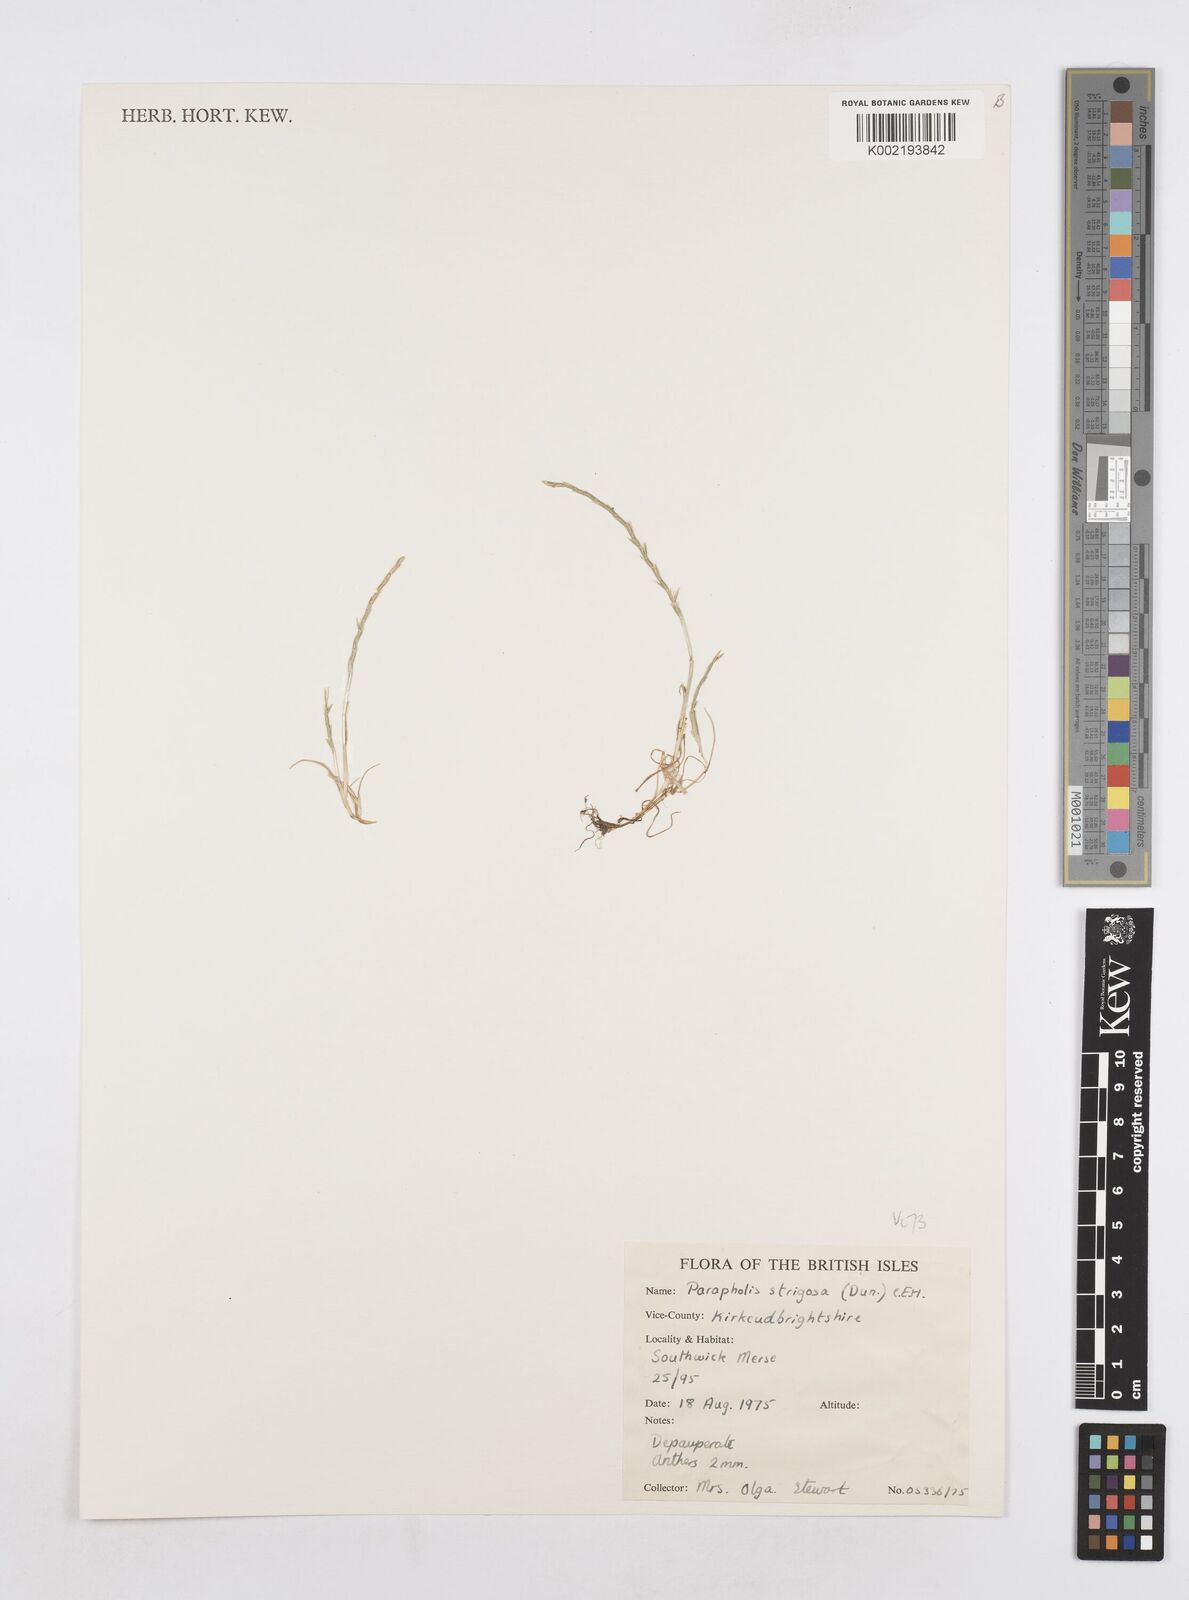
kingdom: Plantae
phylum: Tracheophyta
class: Liliopsida
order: Poales
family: Poaceae
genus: Parapholis
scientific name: Parapholis strigosa
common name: Hard-grass
